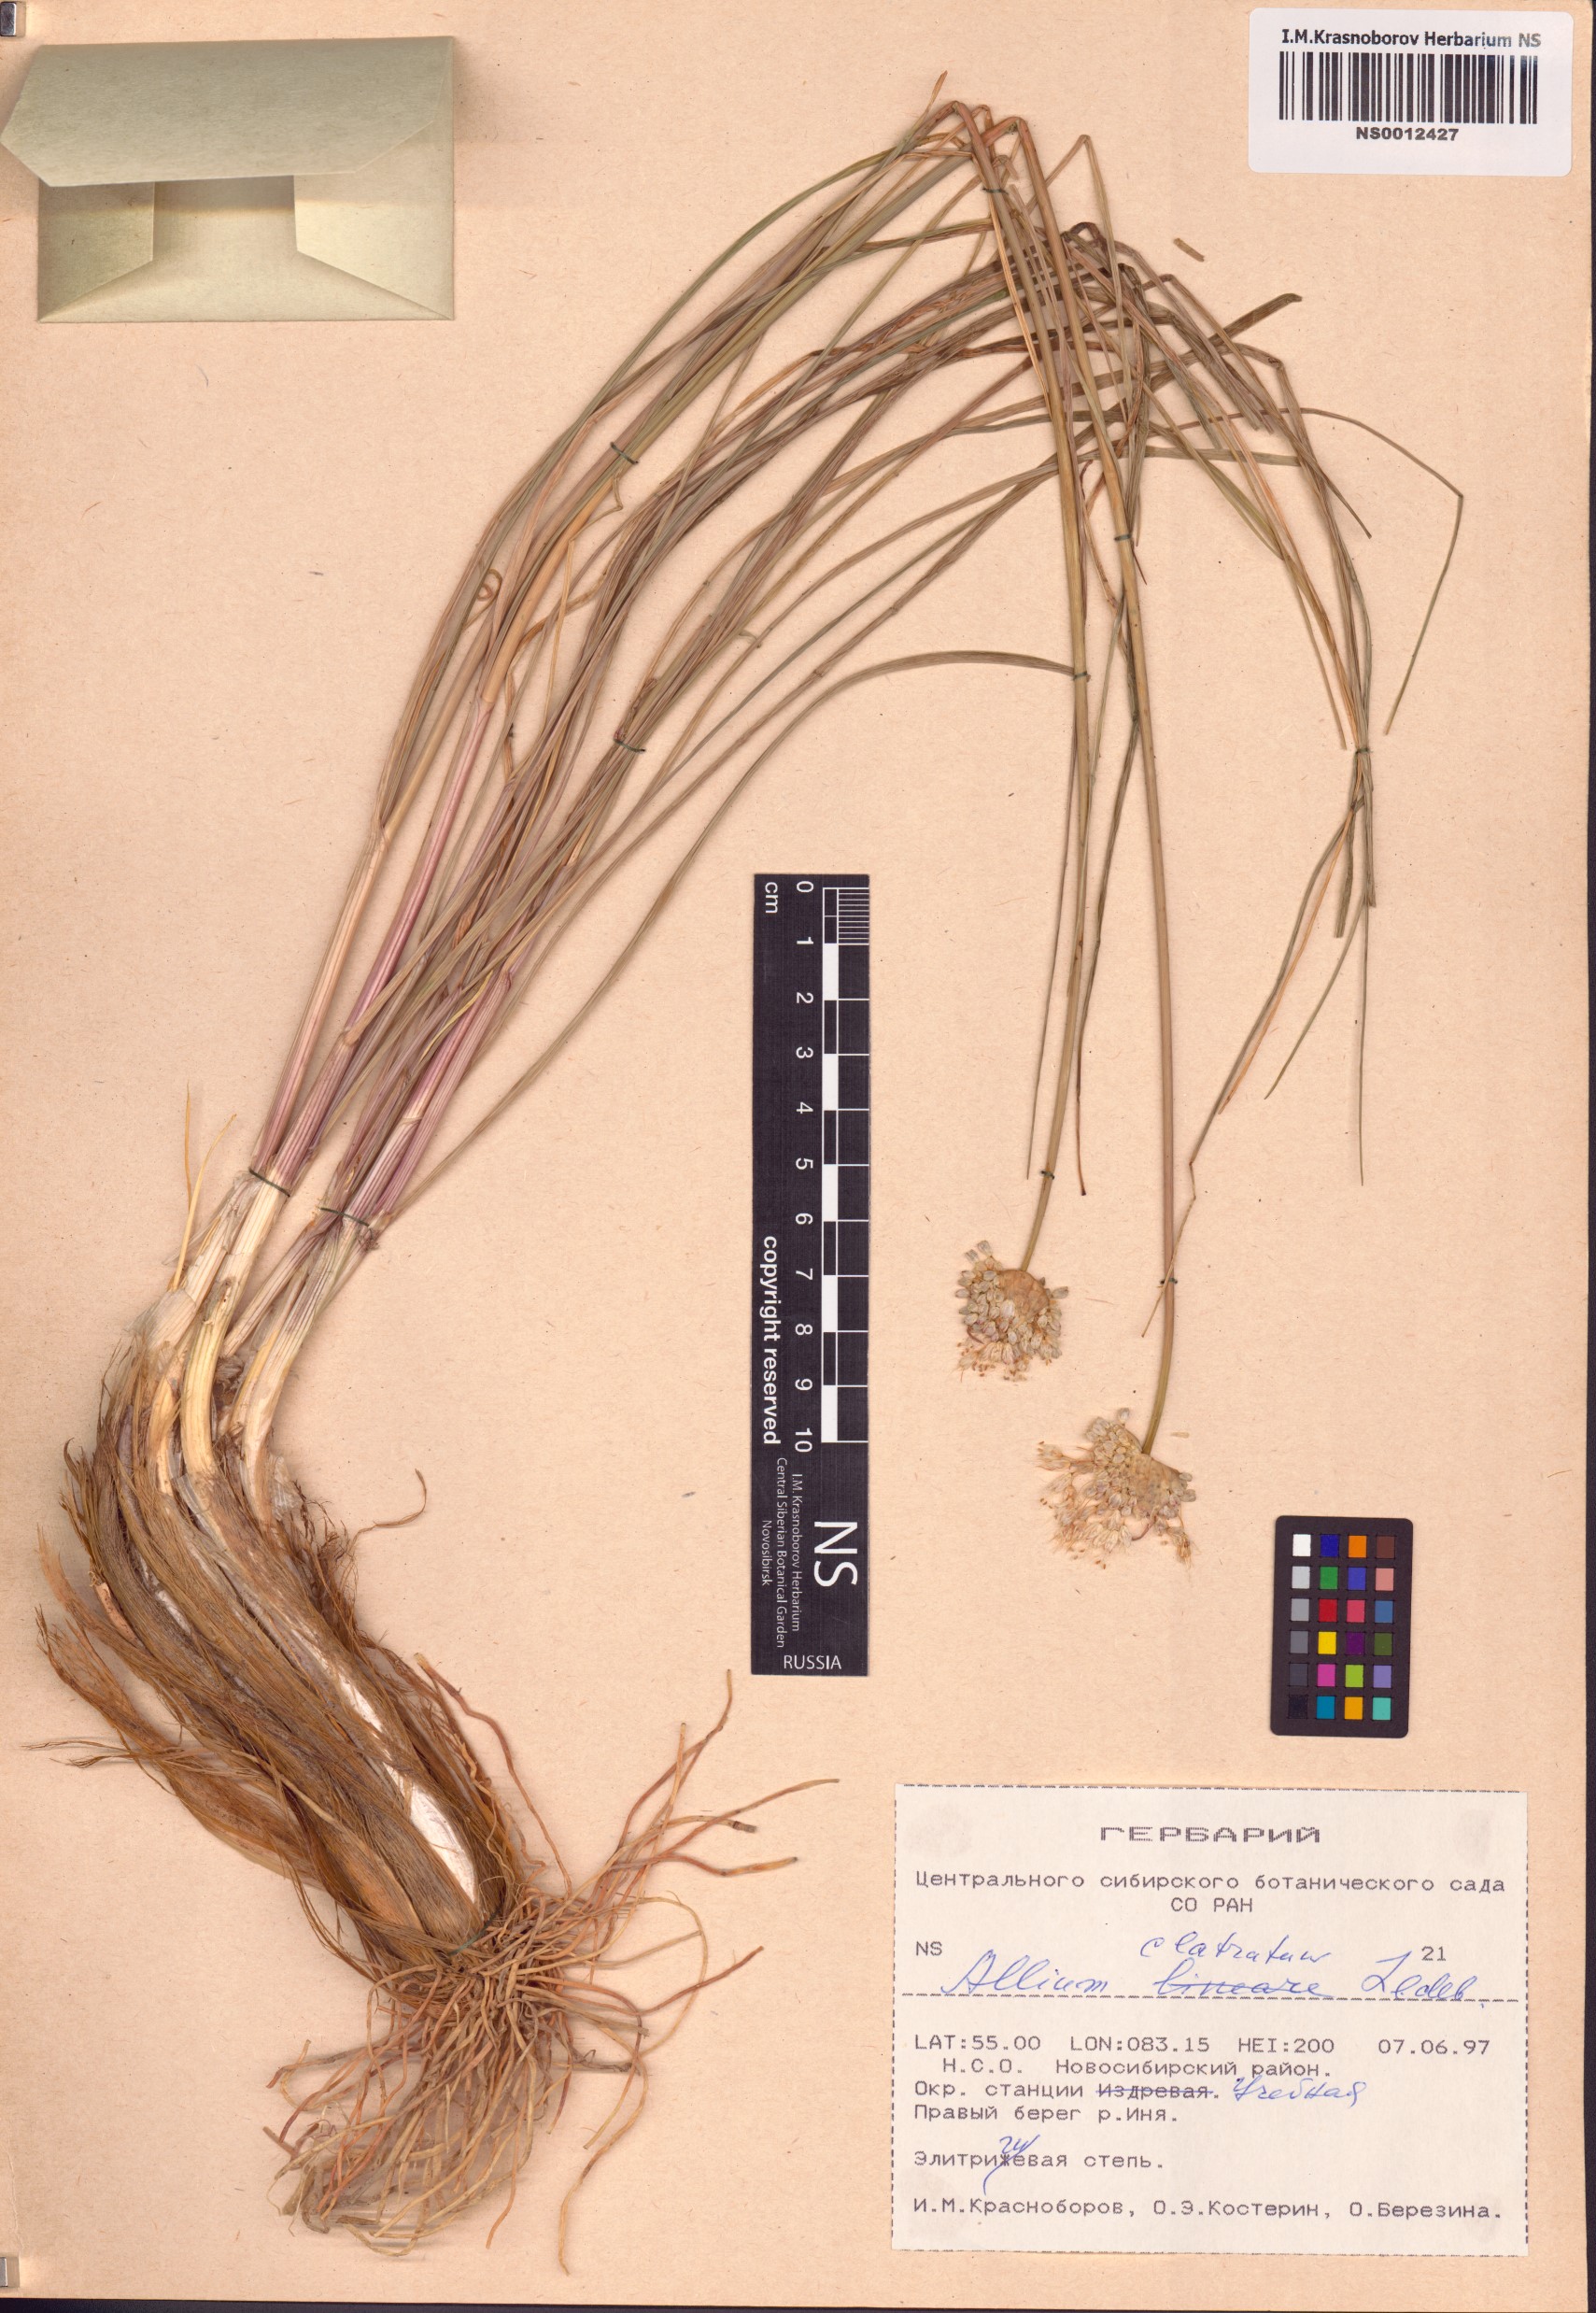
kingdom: Plantae
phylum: Tracheophyta
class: Liliopsida
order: Asparagales
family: Amaryllidaceae
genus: Allium
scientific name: Allium clathratum
